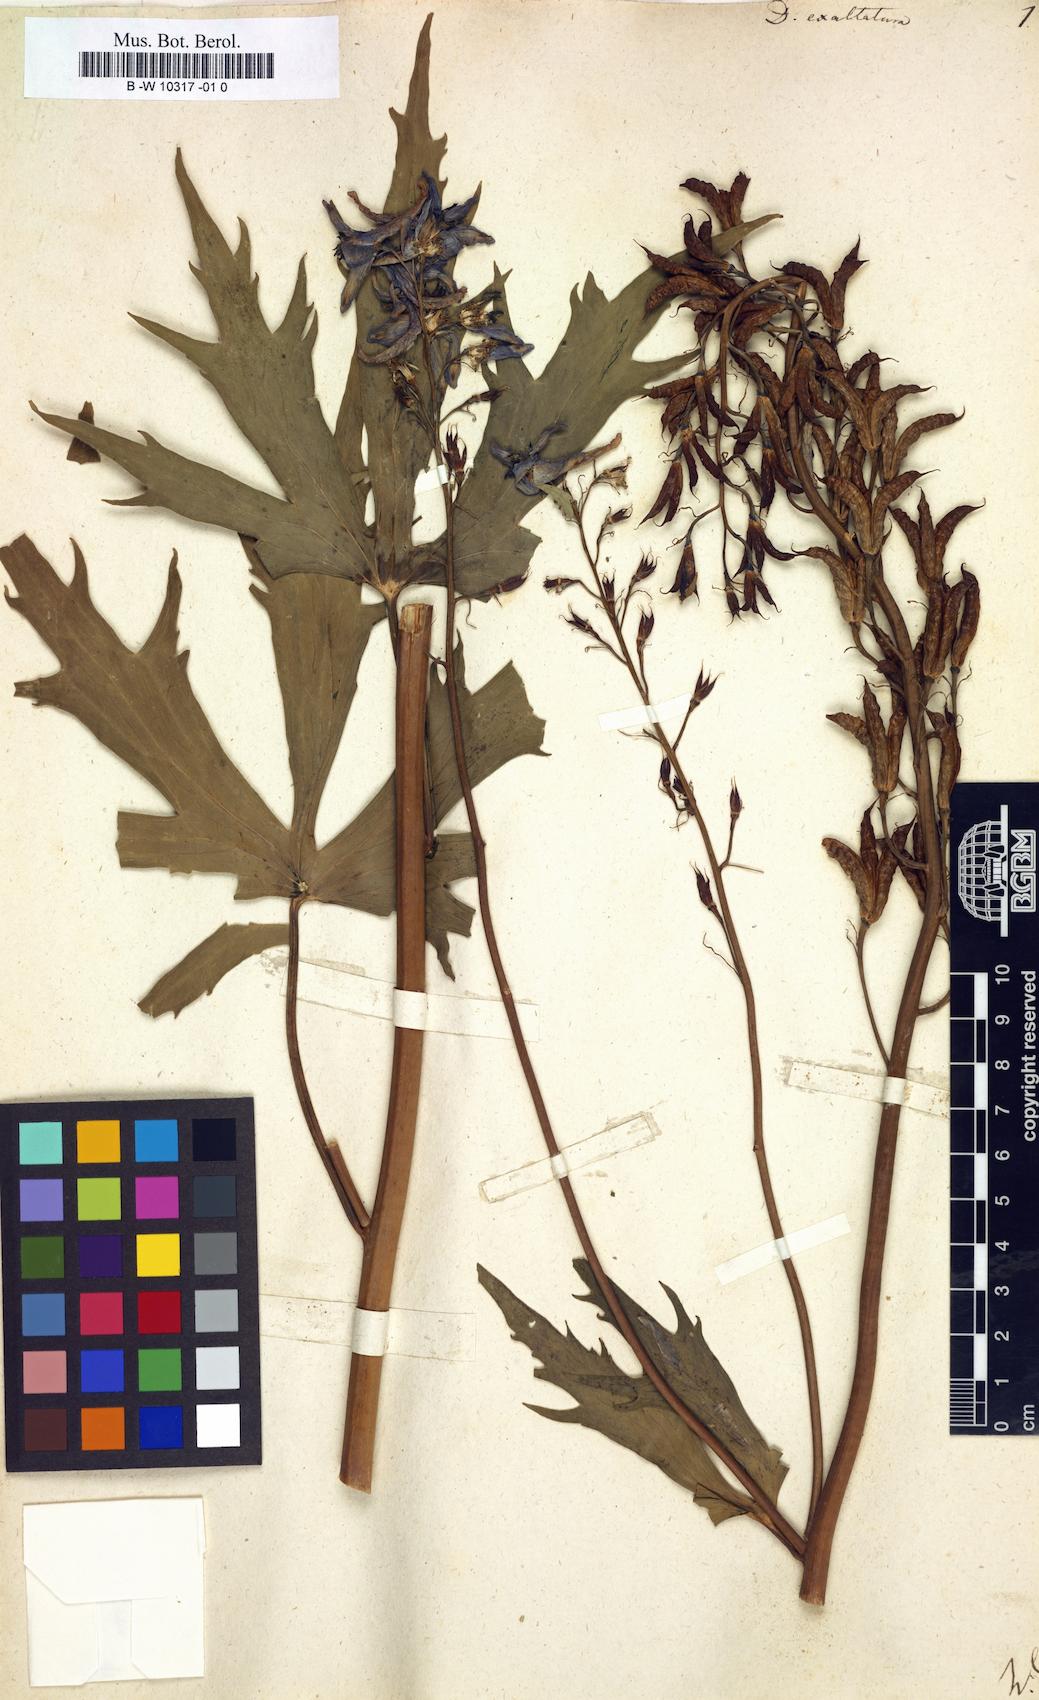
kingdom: Plantae
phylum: Tracheophyta
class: Magnoliopsida
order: Ranunculales
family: Ranunculaceae
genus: Delphinium
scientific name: Delphinium exaltatum
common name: Tall larkspur
